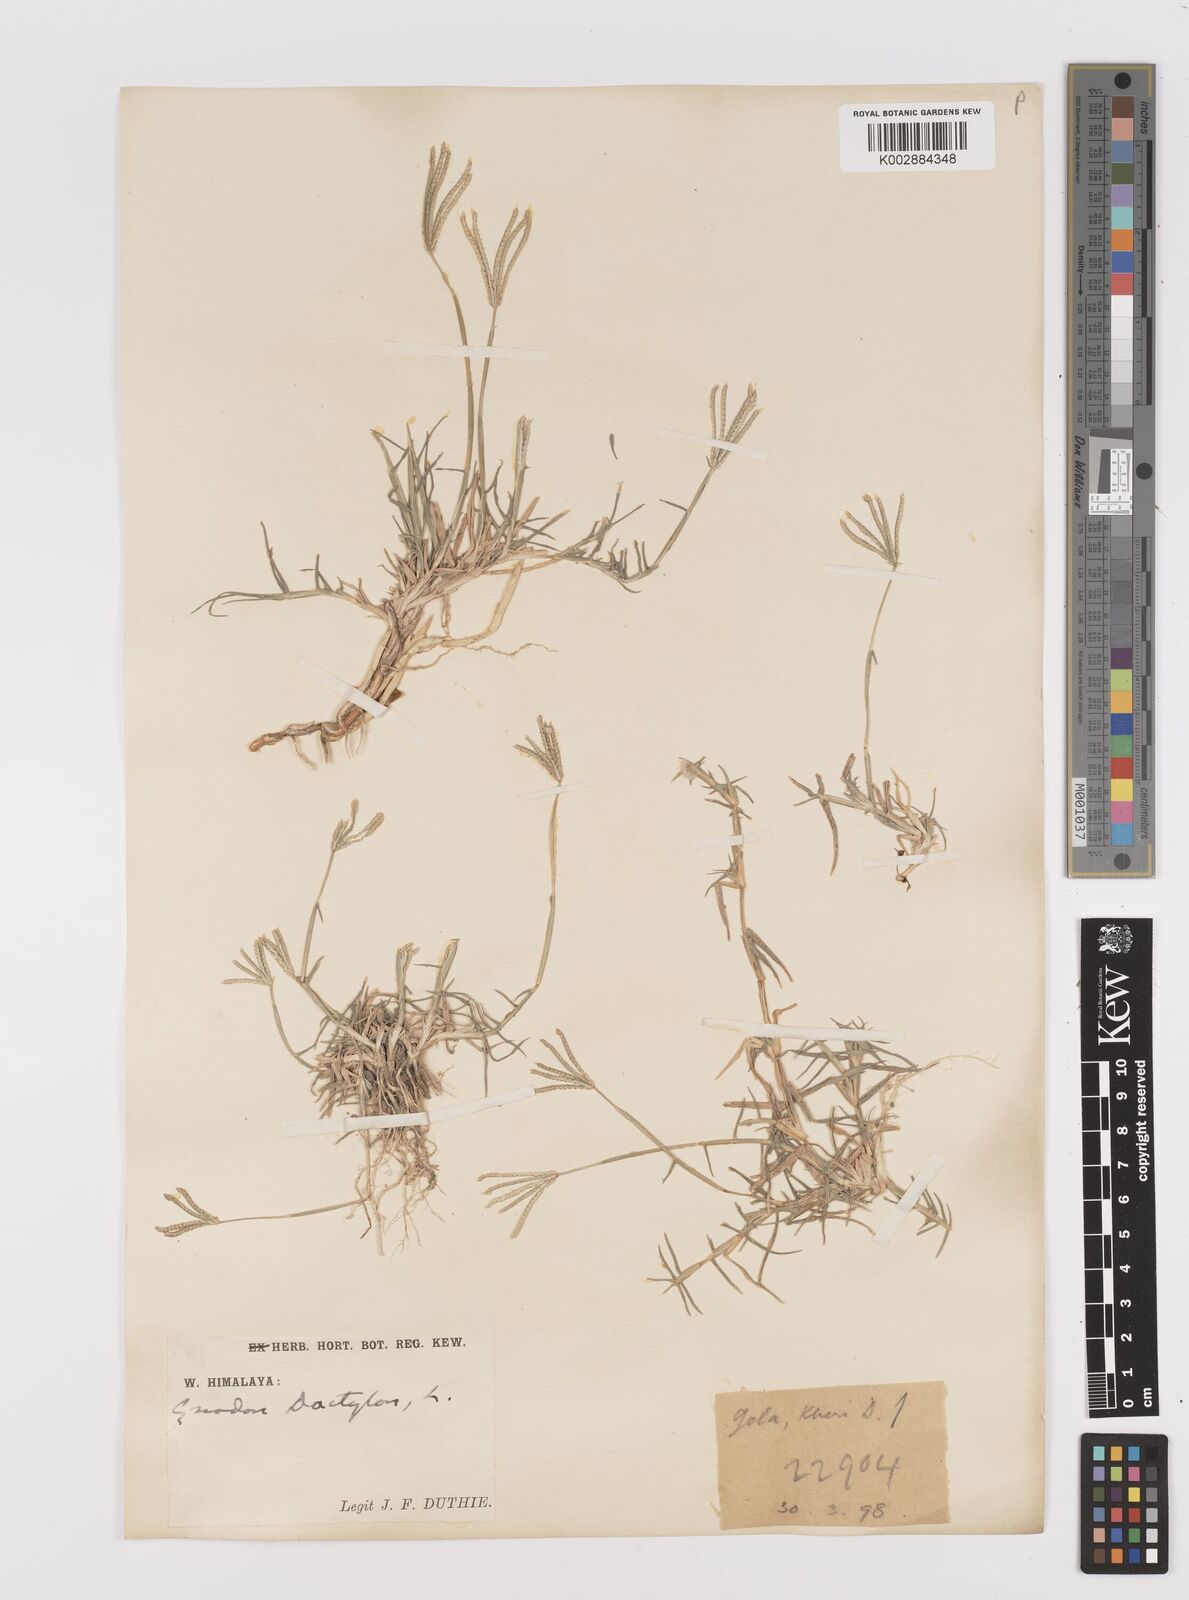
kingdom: Plantae
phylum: Tracheophyta
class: Liliopsida
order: Poales
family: Poaceae
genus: Cynodon
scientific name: Cynodon dactylon
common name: Bermuda grass
